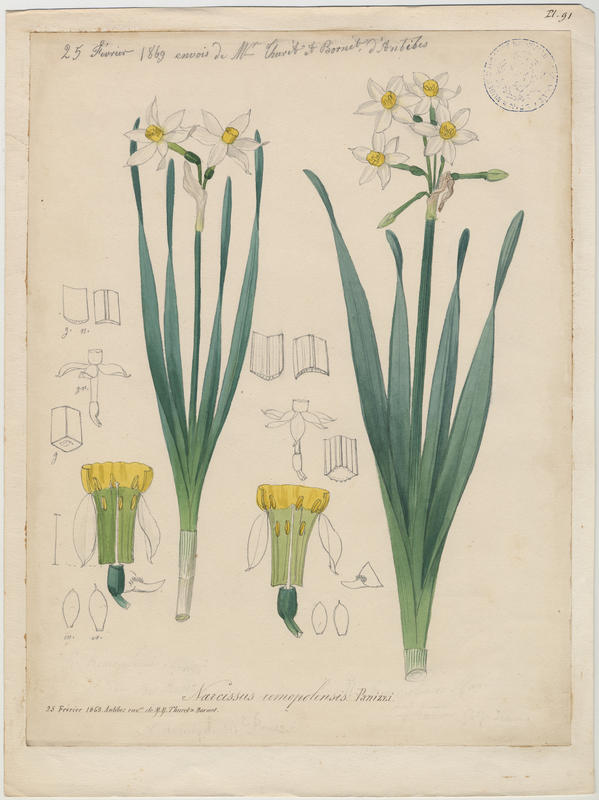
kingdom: Plantae
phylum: Tracheophyta
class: Liliopsida
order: Asparagales
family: Amaryllidaceae
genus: Narcissus
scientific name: Narcissus tazetta
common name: Bunch-flowered daffodil
